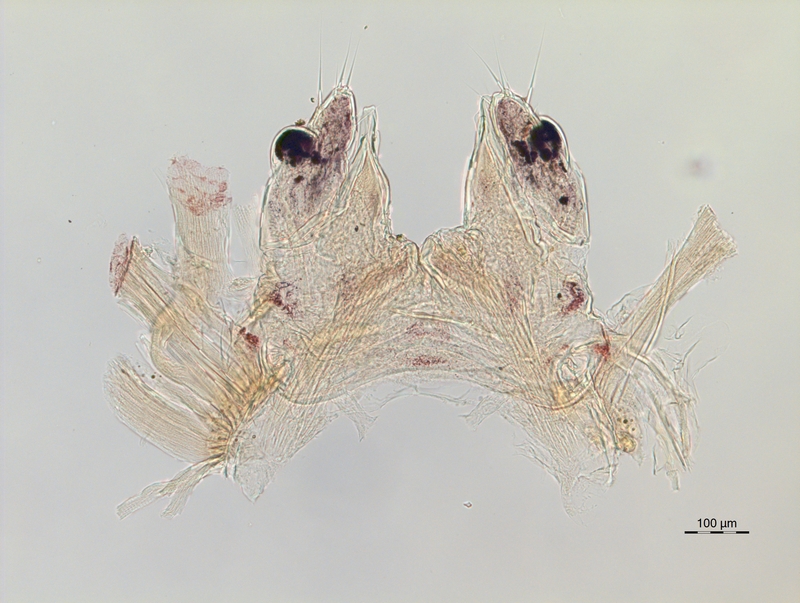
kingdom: Animalia
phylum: Arthropoda
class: Diplopoda
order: Chordeumatida
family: Chordeumatidae
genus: Chordeuma
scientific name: Chordeuma sylvestre
